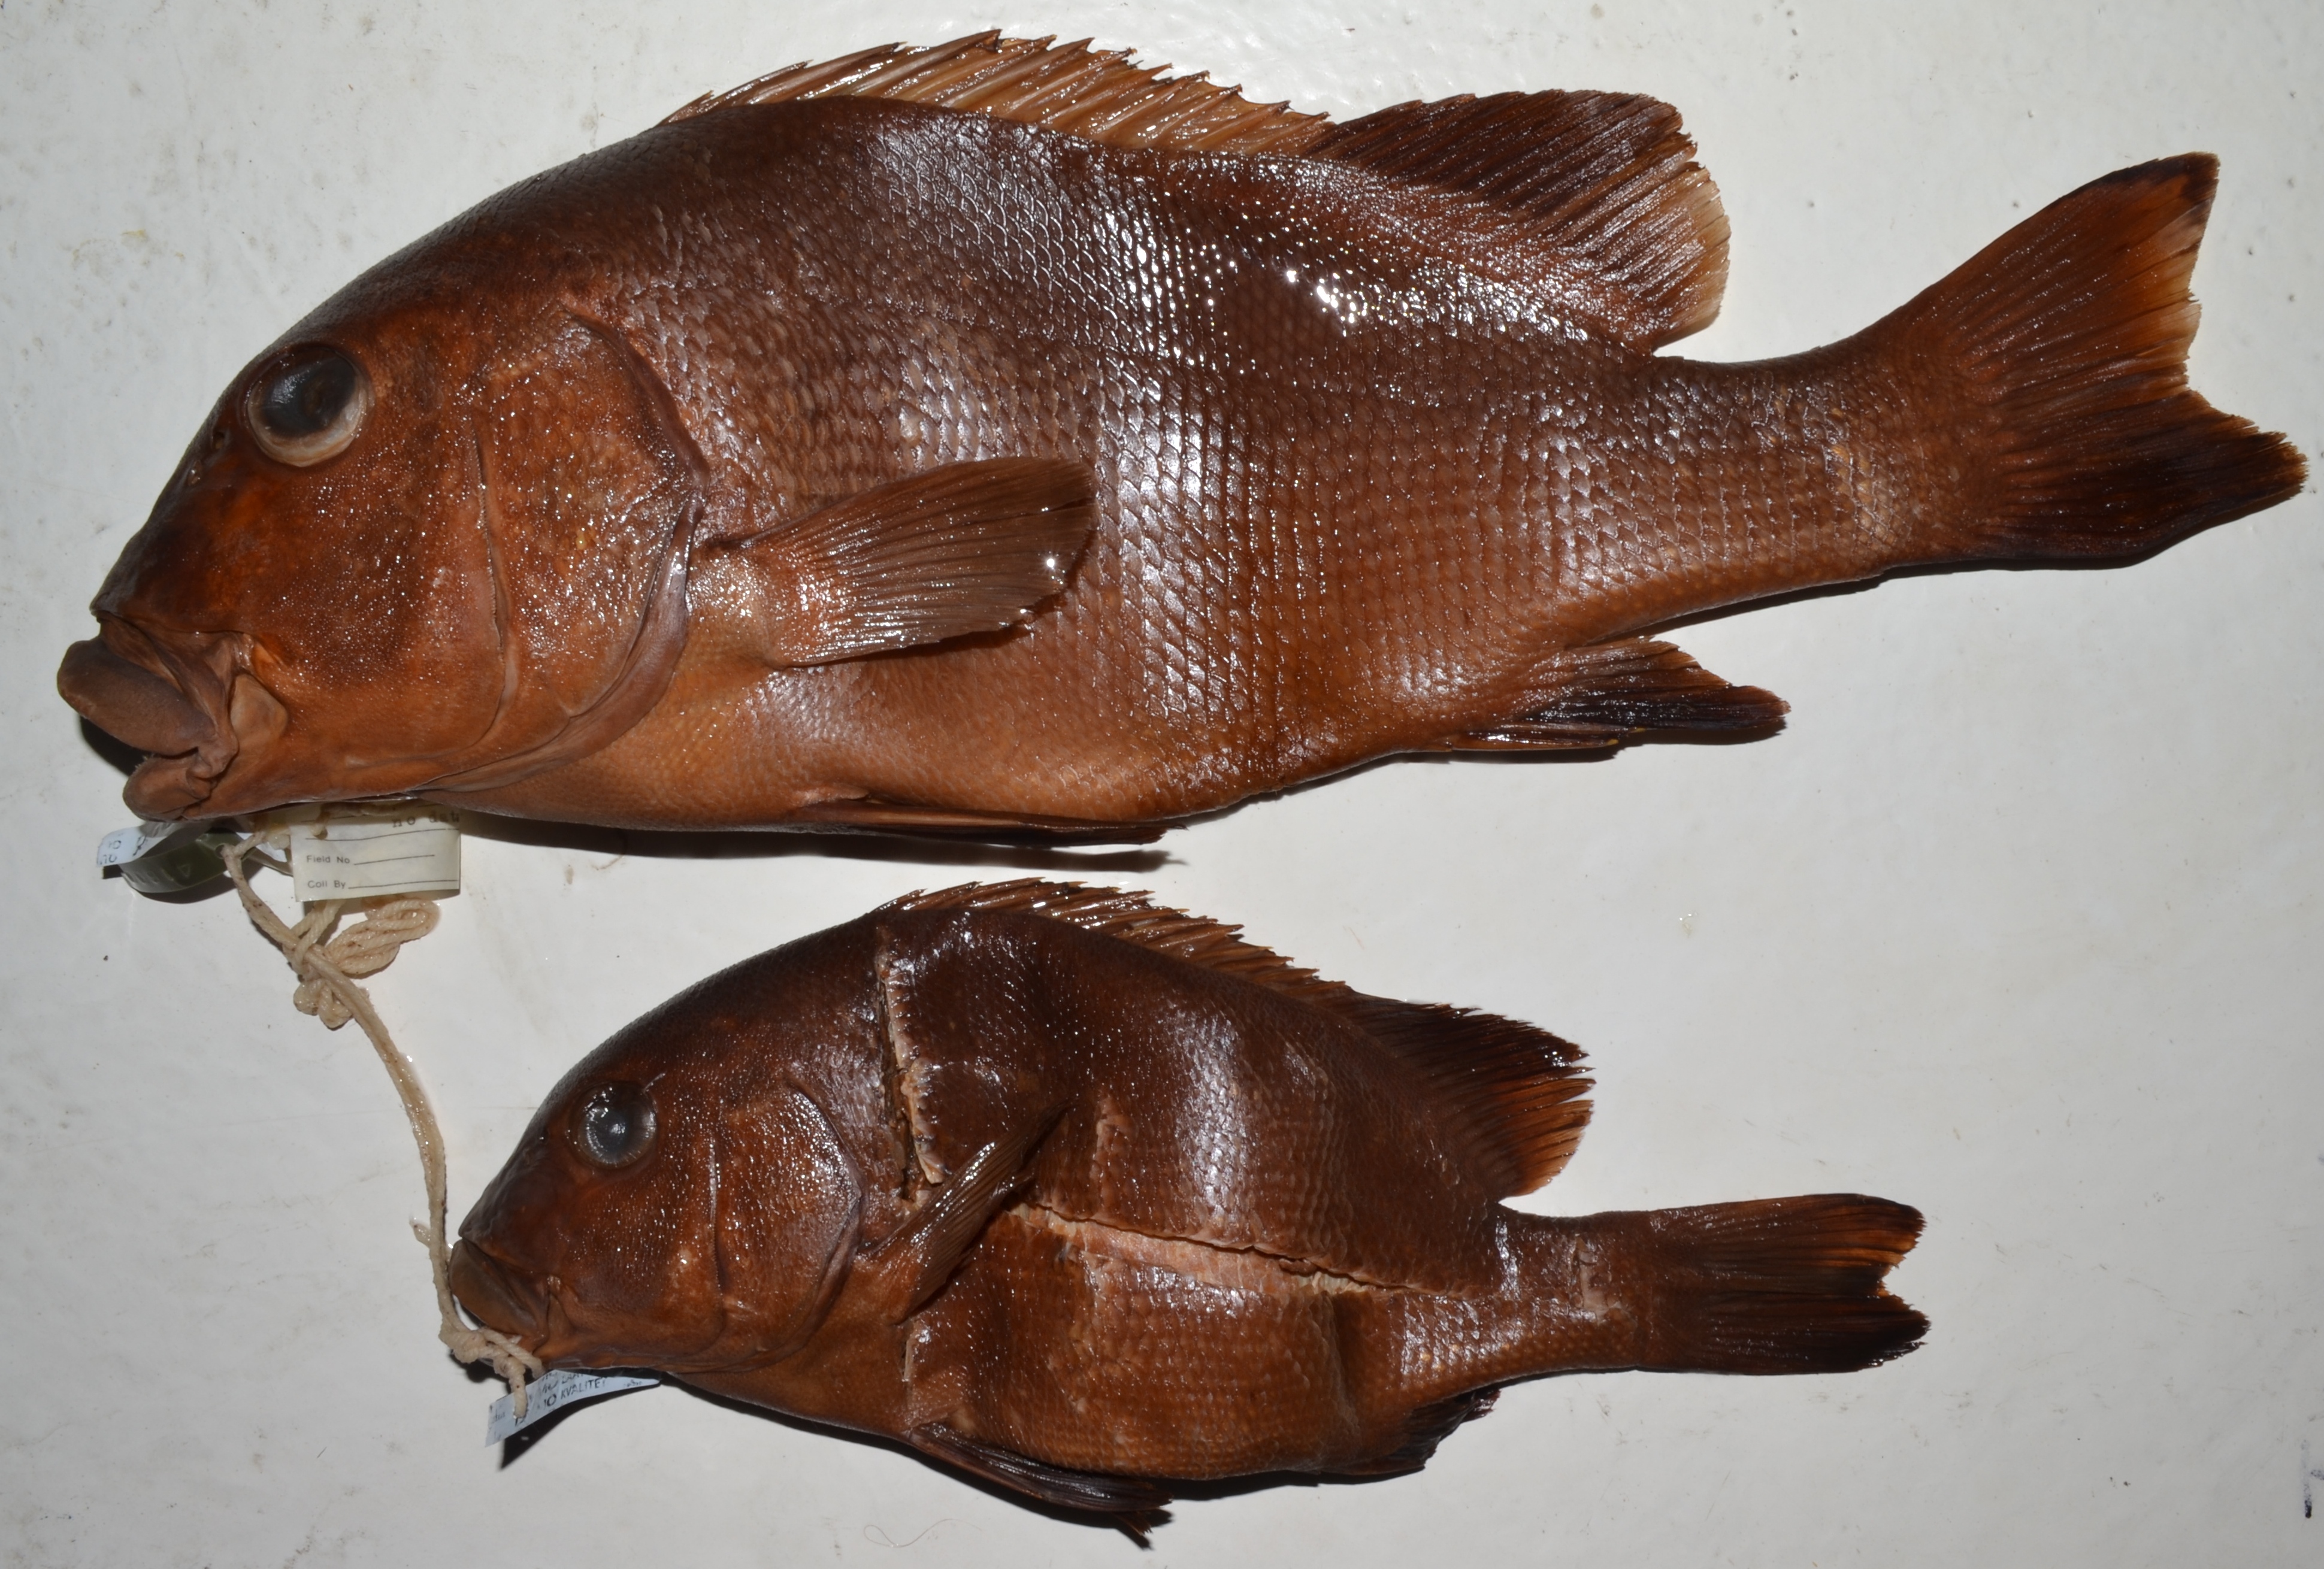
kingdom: Animalia
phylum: Chordata
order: Perciformes
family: Haemulidae
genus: Plectorhinchus
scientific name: Plectorhinchus obscurus
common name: Giant sweetlips
